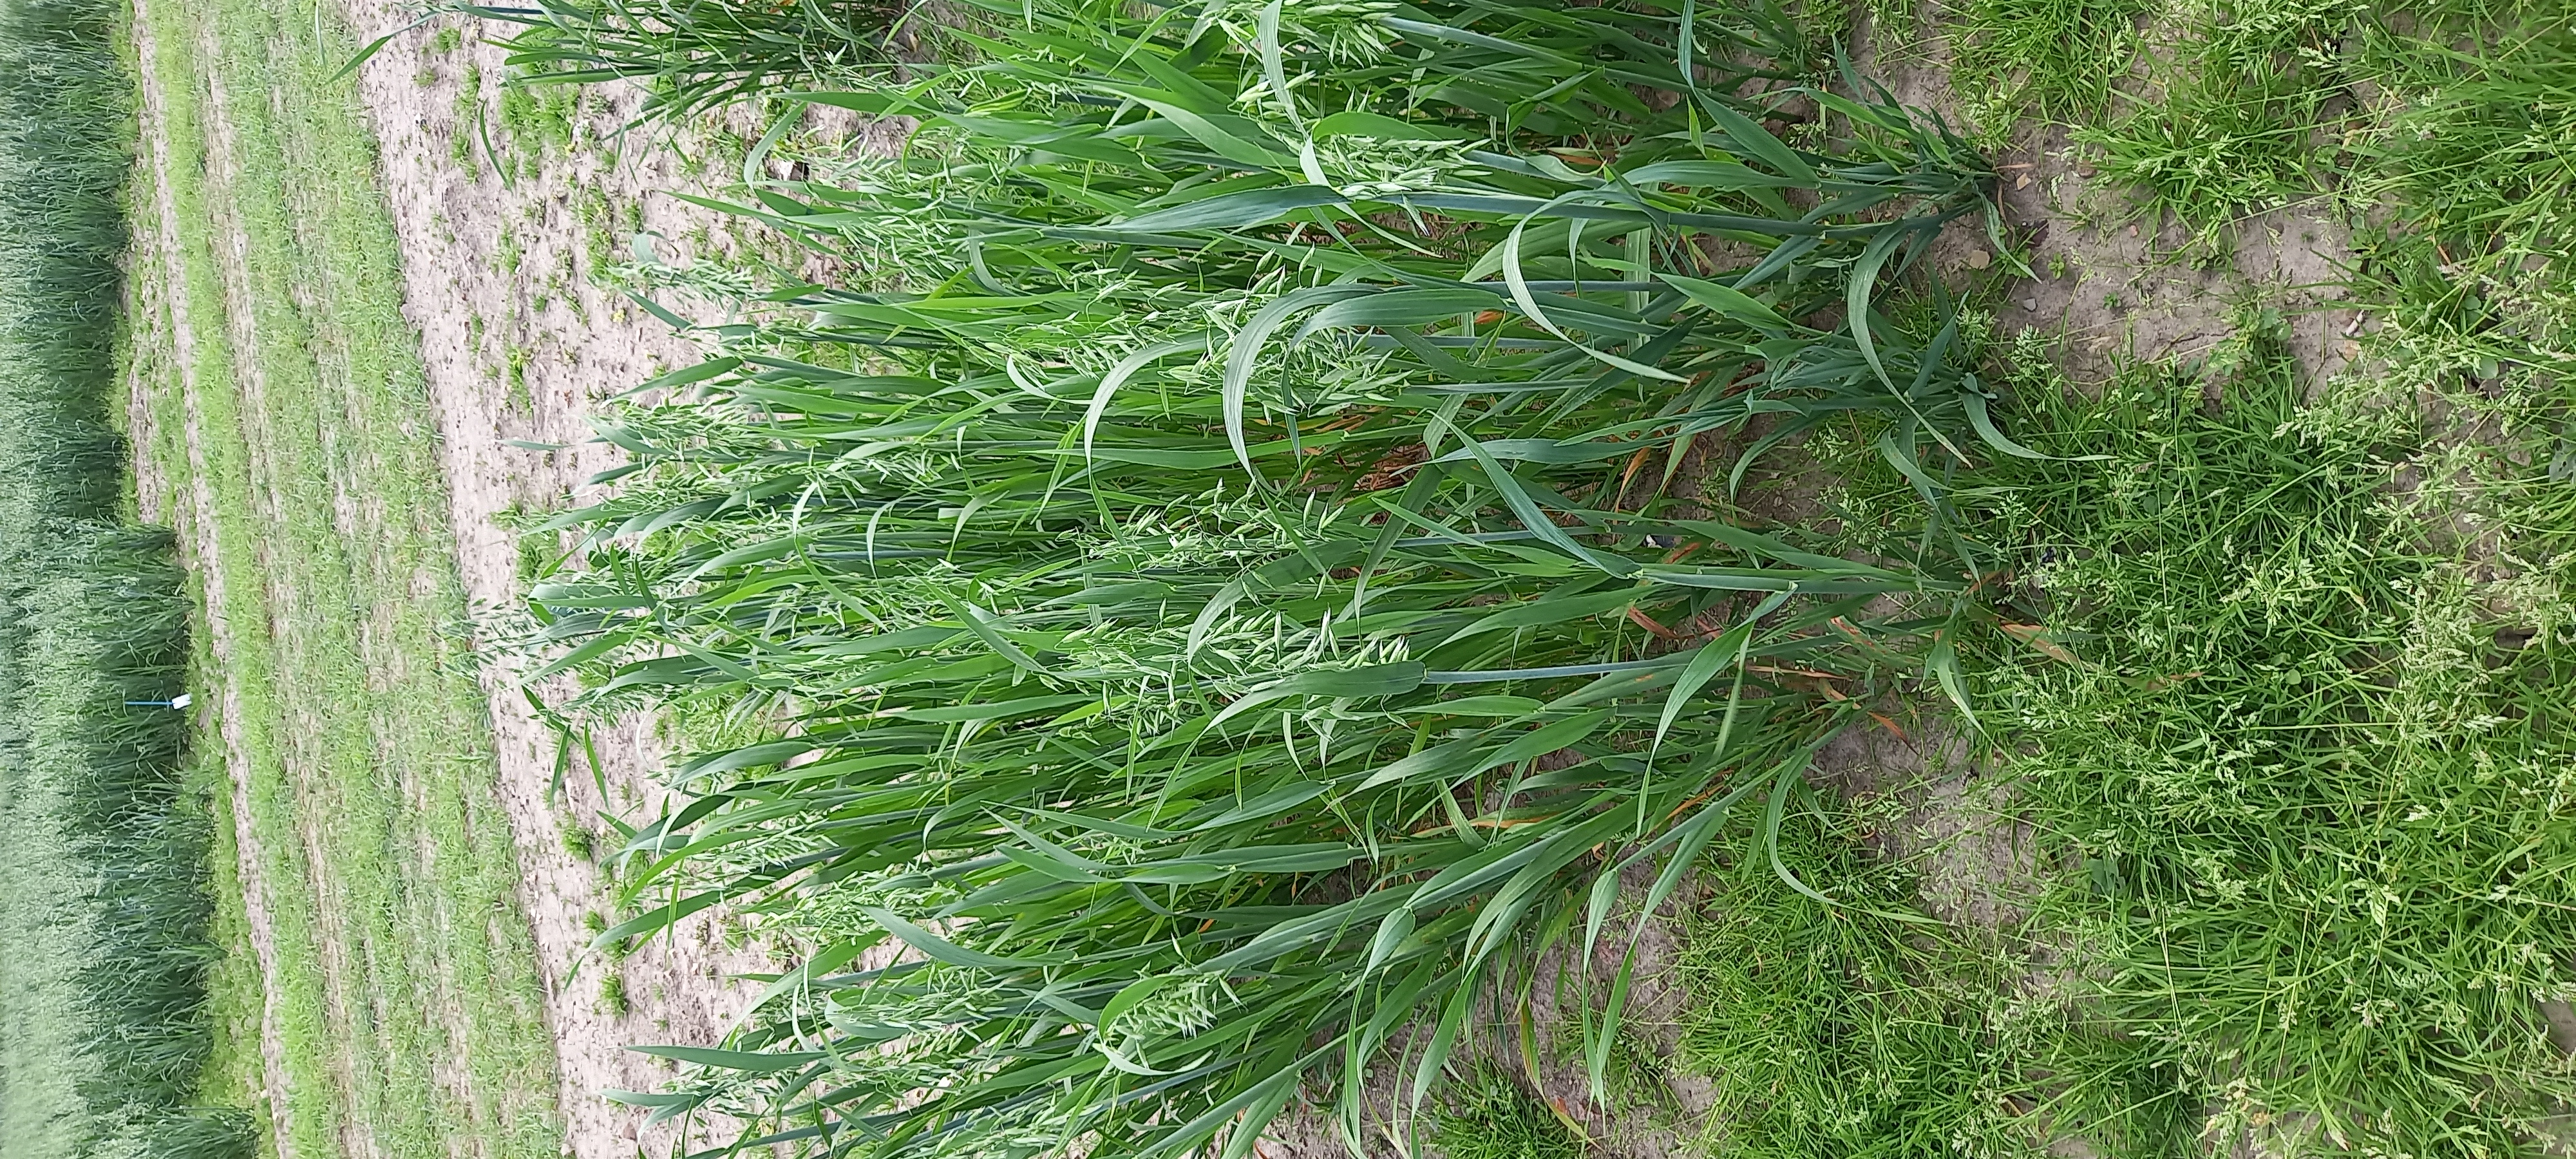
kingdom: Plantae
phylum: Tracheophyta
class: Liliopsida
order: Poales
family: Poaceae
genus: Avena
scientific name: Avena sativa
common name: Oat
